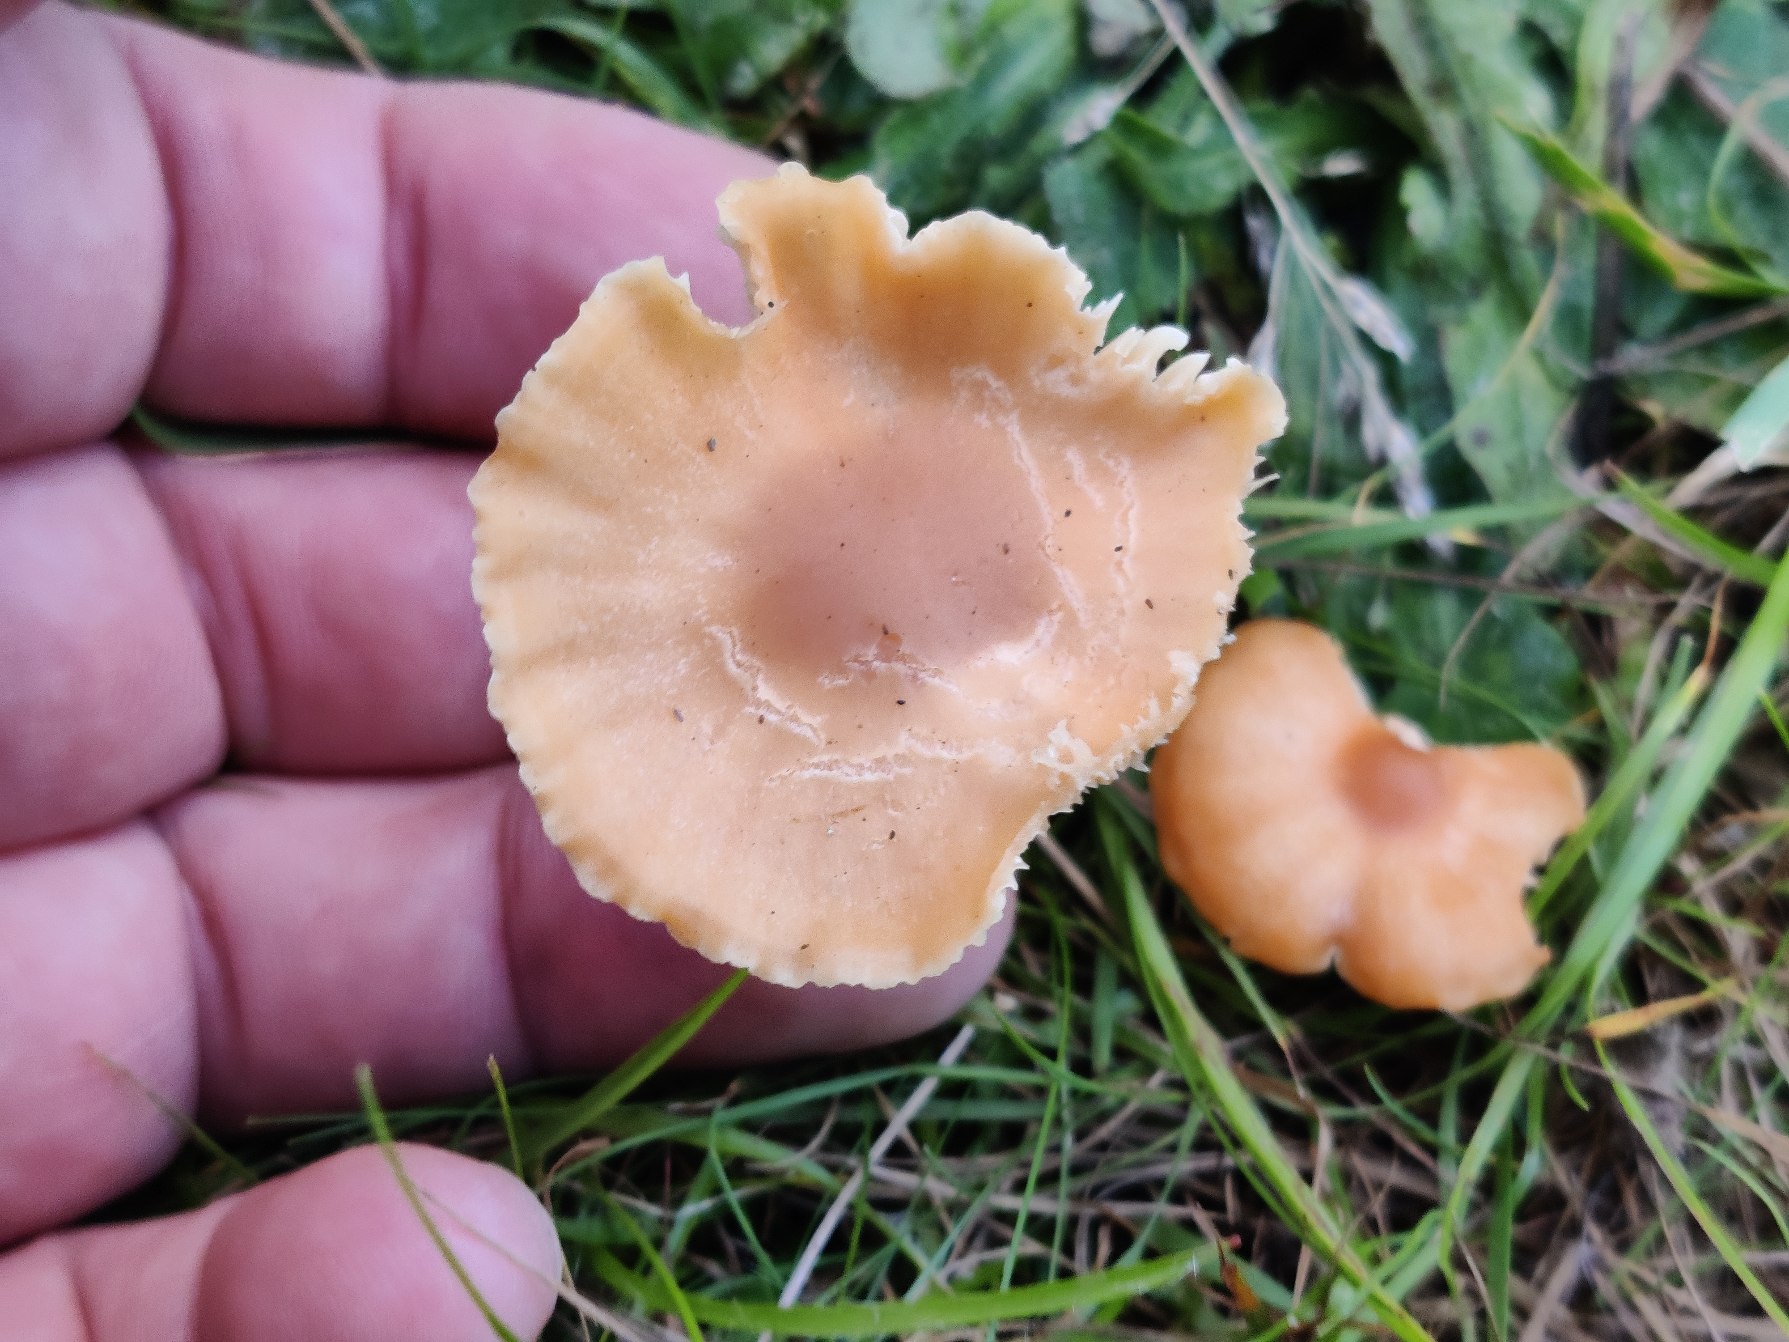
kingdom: Fungi
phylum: Basidiomycota
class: Agaricomycetes
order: Agaricales
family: Hygrophoraceae
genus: Cuphophyllus
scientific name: Cuphophyllus pratensis
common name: Eng-vokshat
